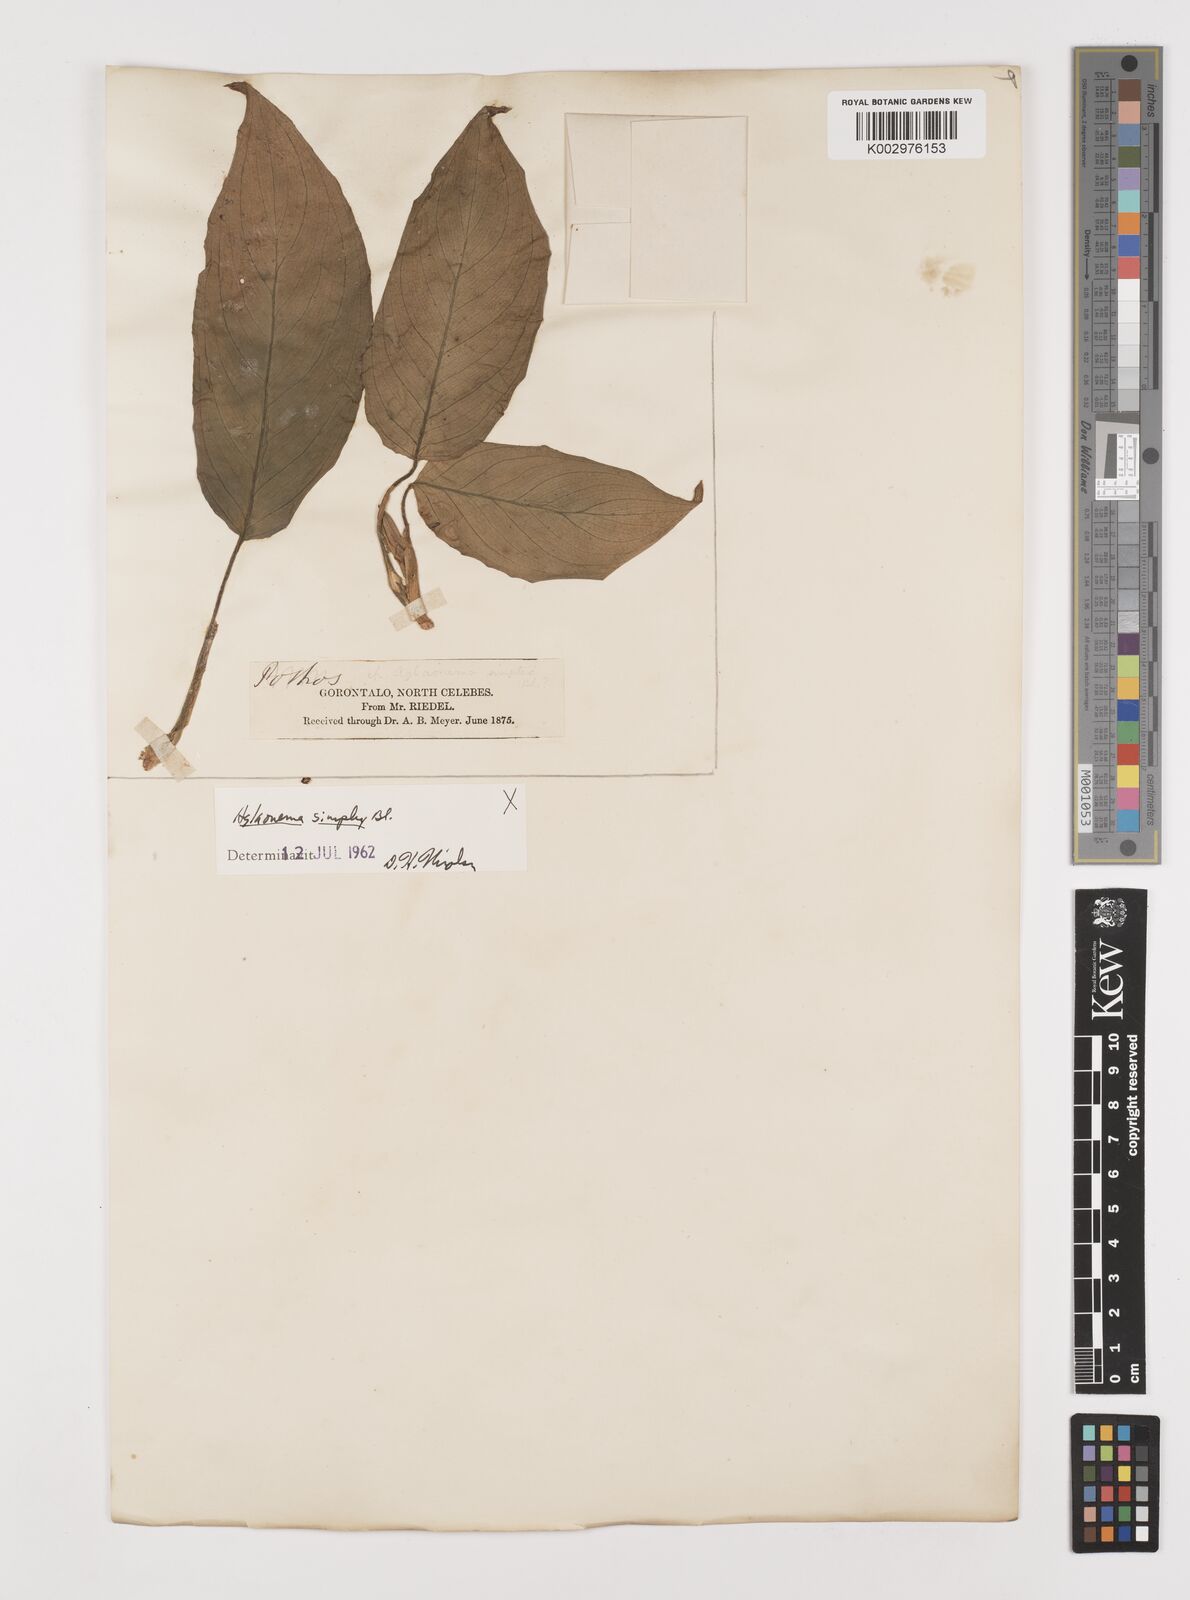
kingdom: Plantae
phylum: Tracheophyta
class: Liliopsida
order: Alismatales
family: Araceae
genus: Aglaonema
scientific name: Aglaonema simplex
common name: Malayan-sword
